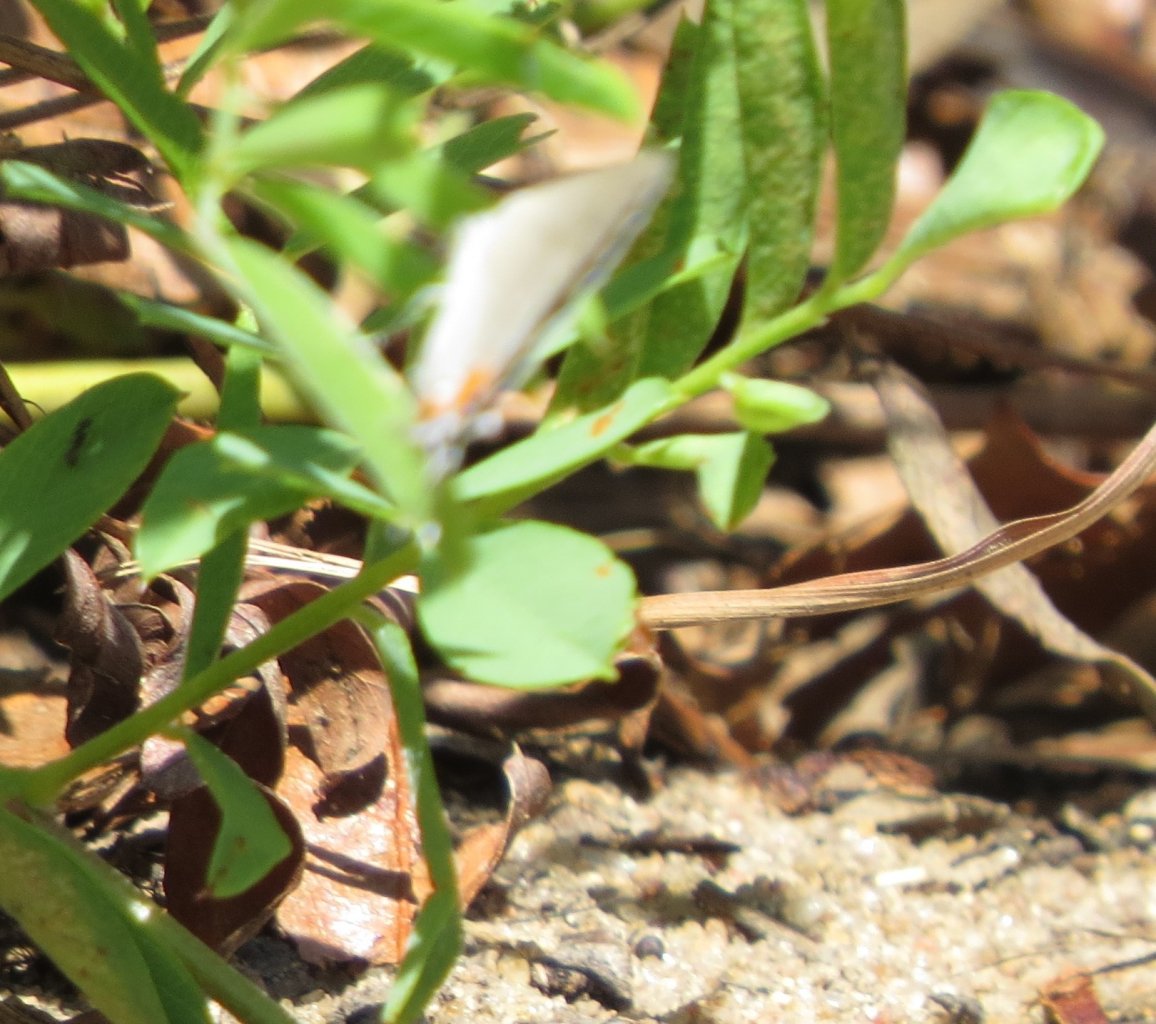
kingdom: Animalia
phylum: Arthropoda
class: Insecta
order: Lepidoptera
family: Lycaenidae
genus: Strymon
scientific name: Strymon melinus
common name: Gray Hairstreak
